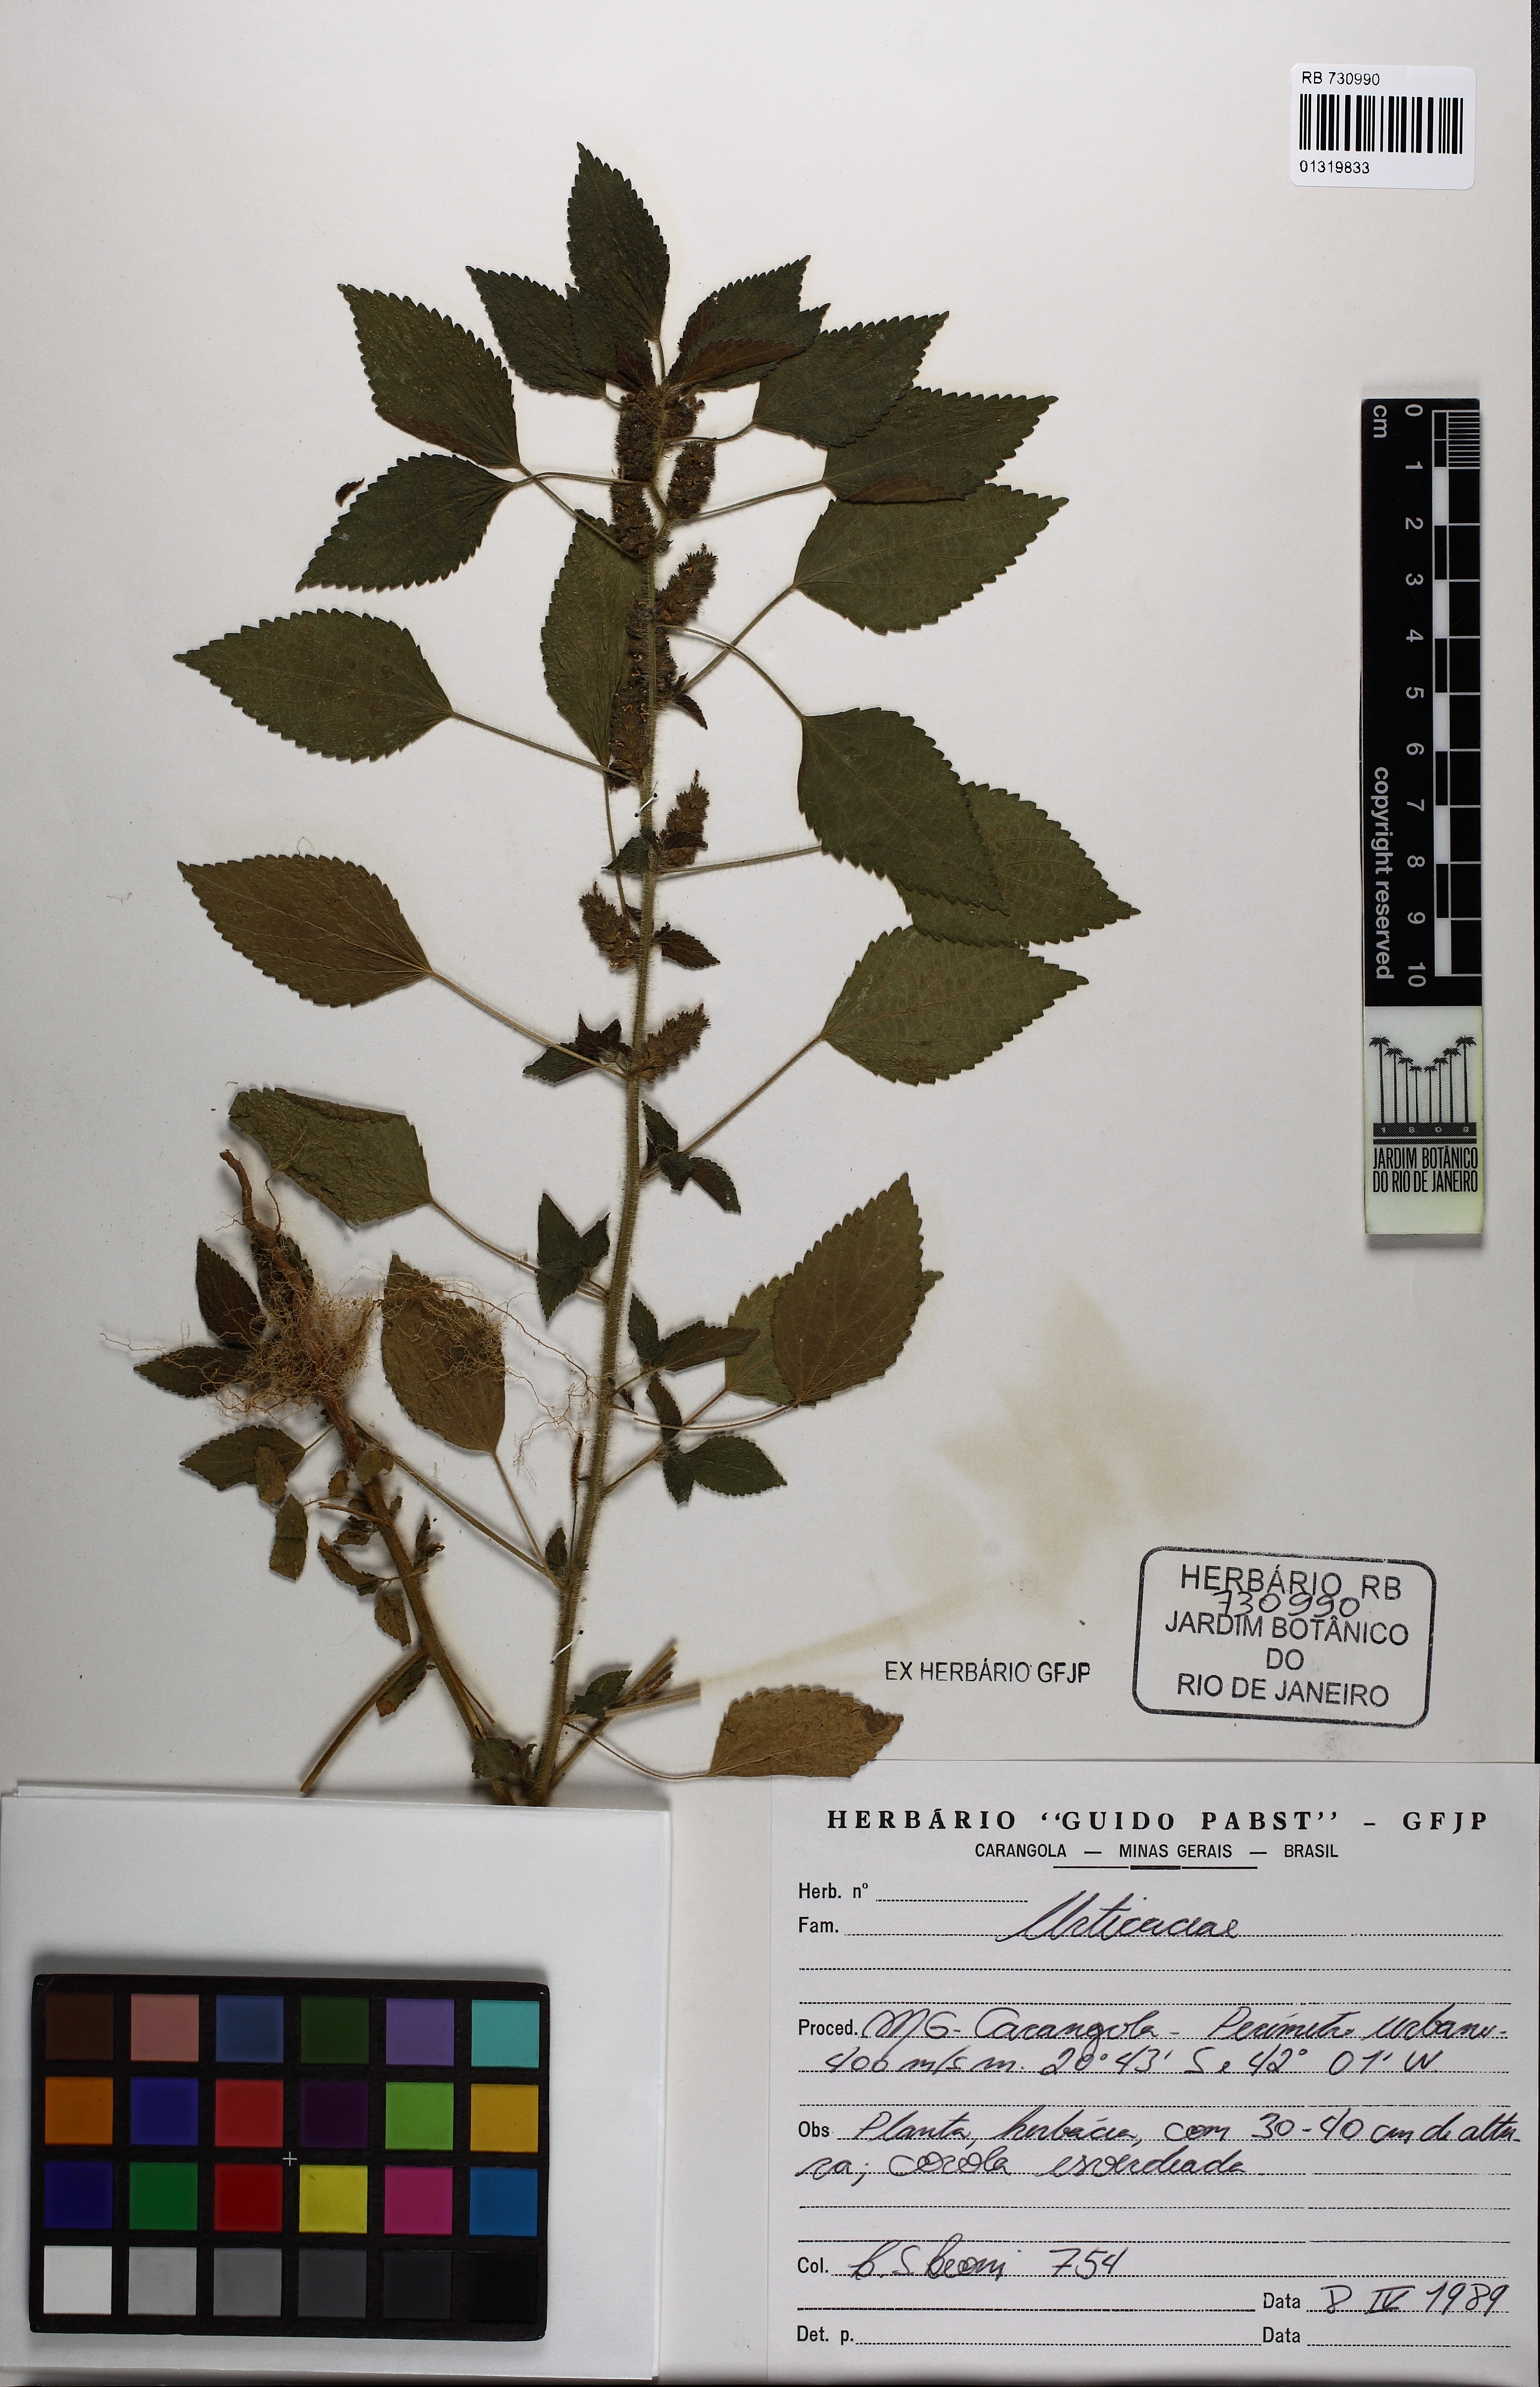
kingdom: Plantae
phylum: Tracheophyta
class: Magnoliopsida
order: Malpighiales
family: Euphorbiaceae
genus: Acalypha
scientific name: Acalypha poiretii
